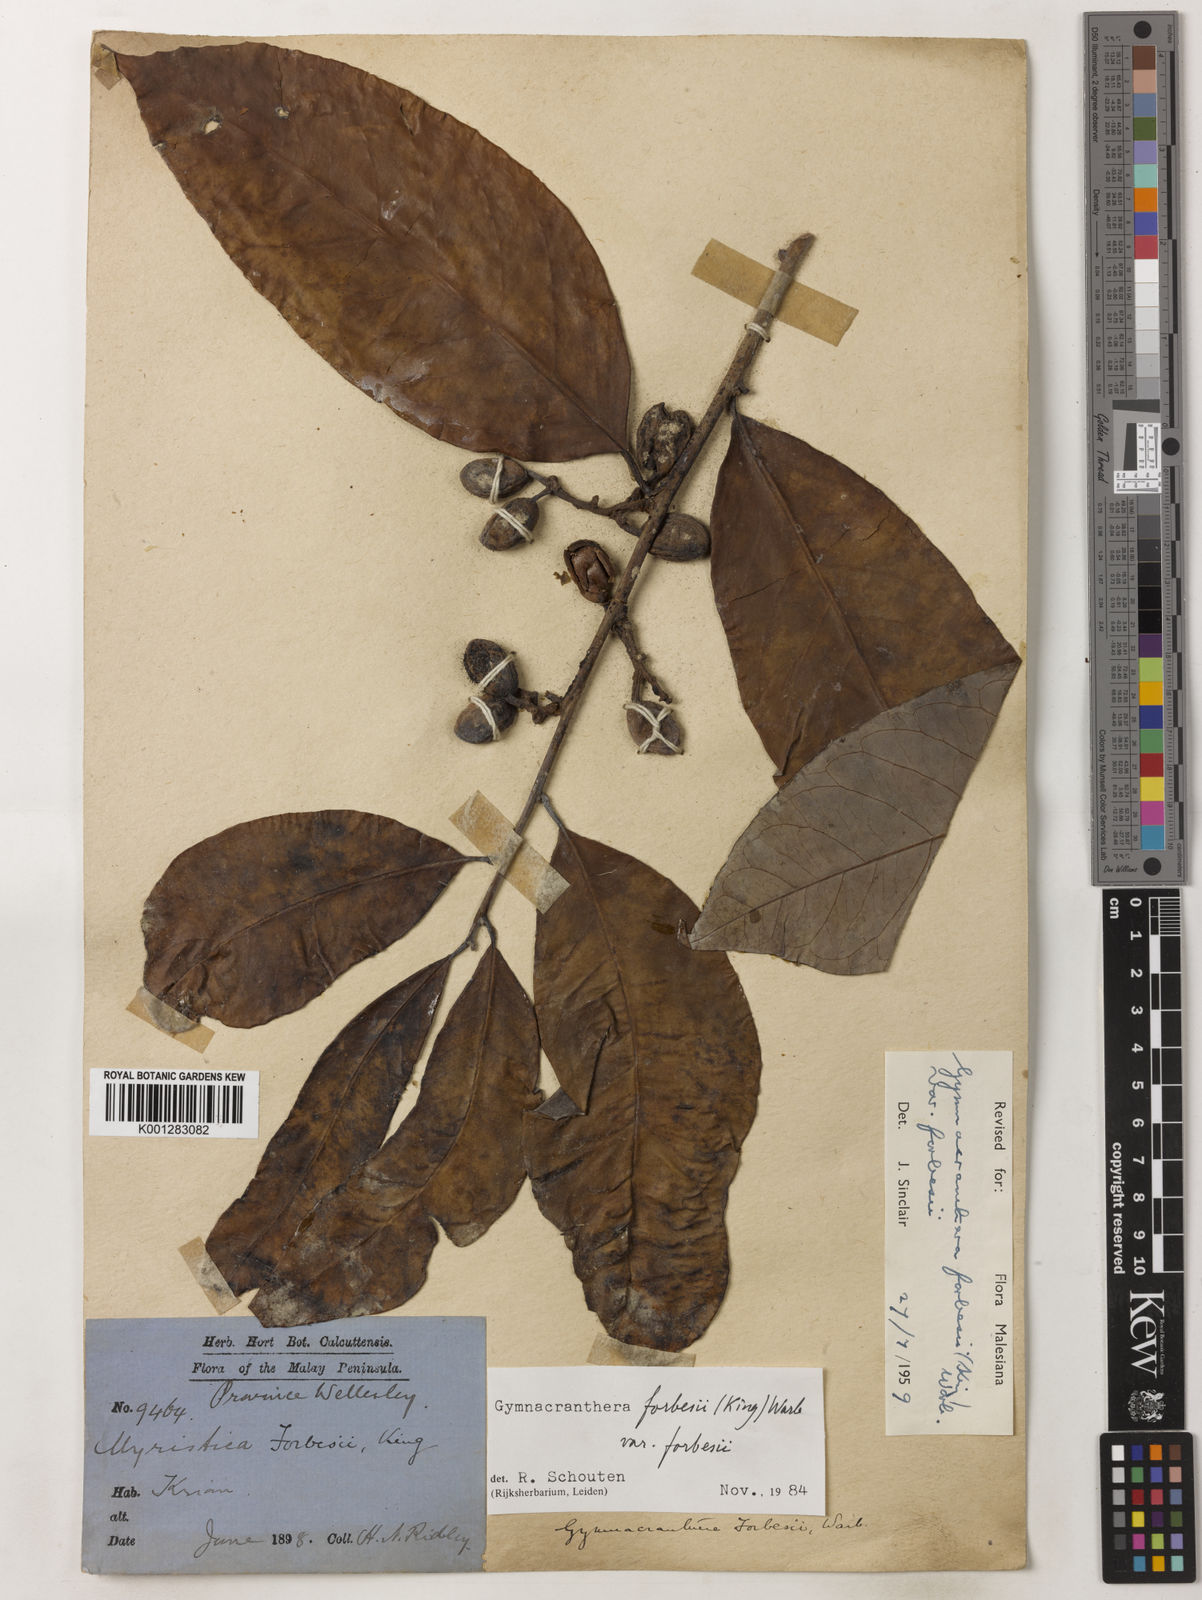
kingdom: Plantae
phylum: Tracheophyta
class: Magnoliopsida
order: Magnoliales
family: Myristicaceae
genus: Gymnacranthera
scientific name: Gymnacranthera forbesii
